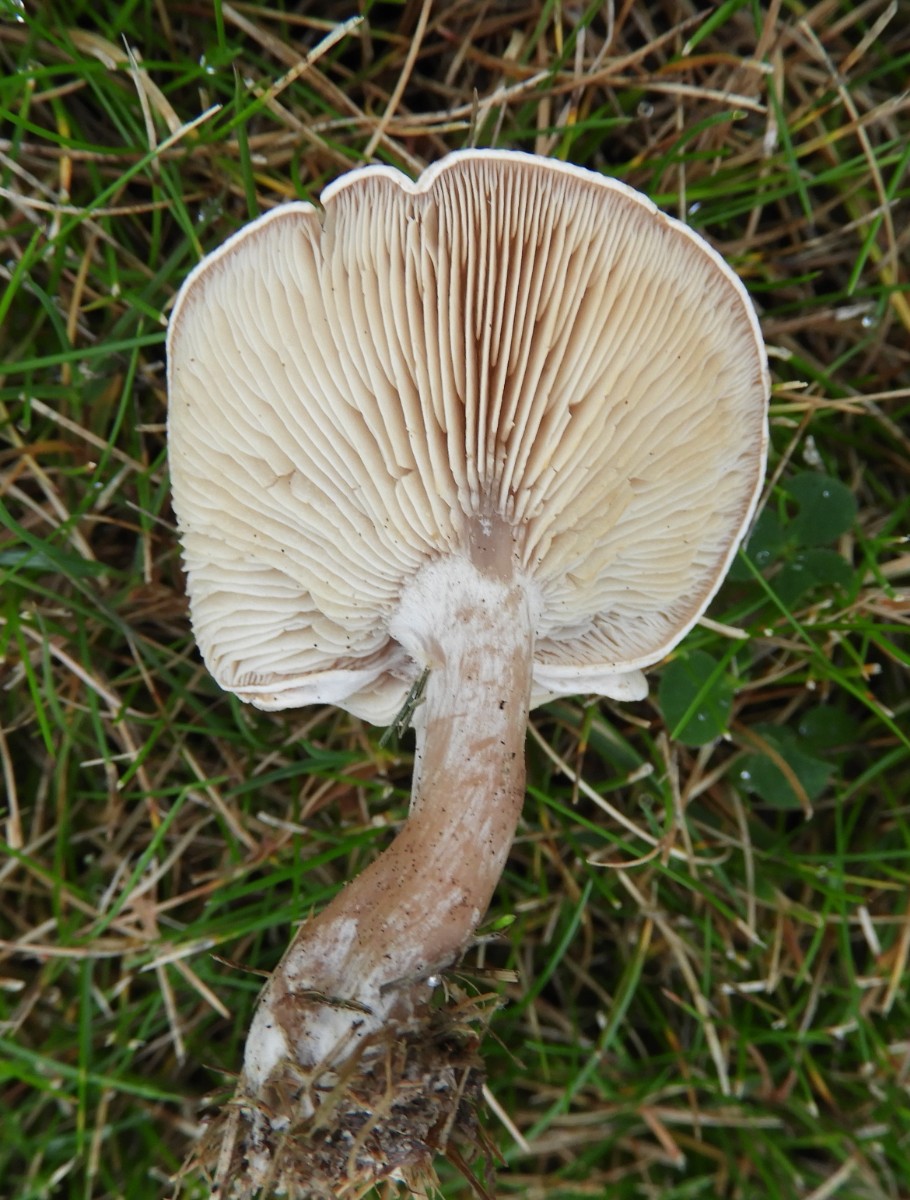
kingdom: Fungi
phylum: Basidiomycota
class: Agaricomycetes
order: Agaricales
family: Tricholomataceae
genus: Clitocybe
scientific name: Clitocybe rivulosa
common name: eng-tragthat
